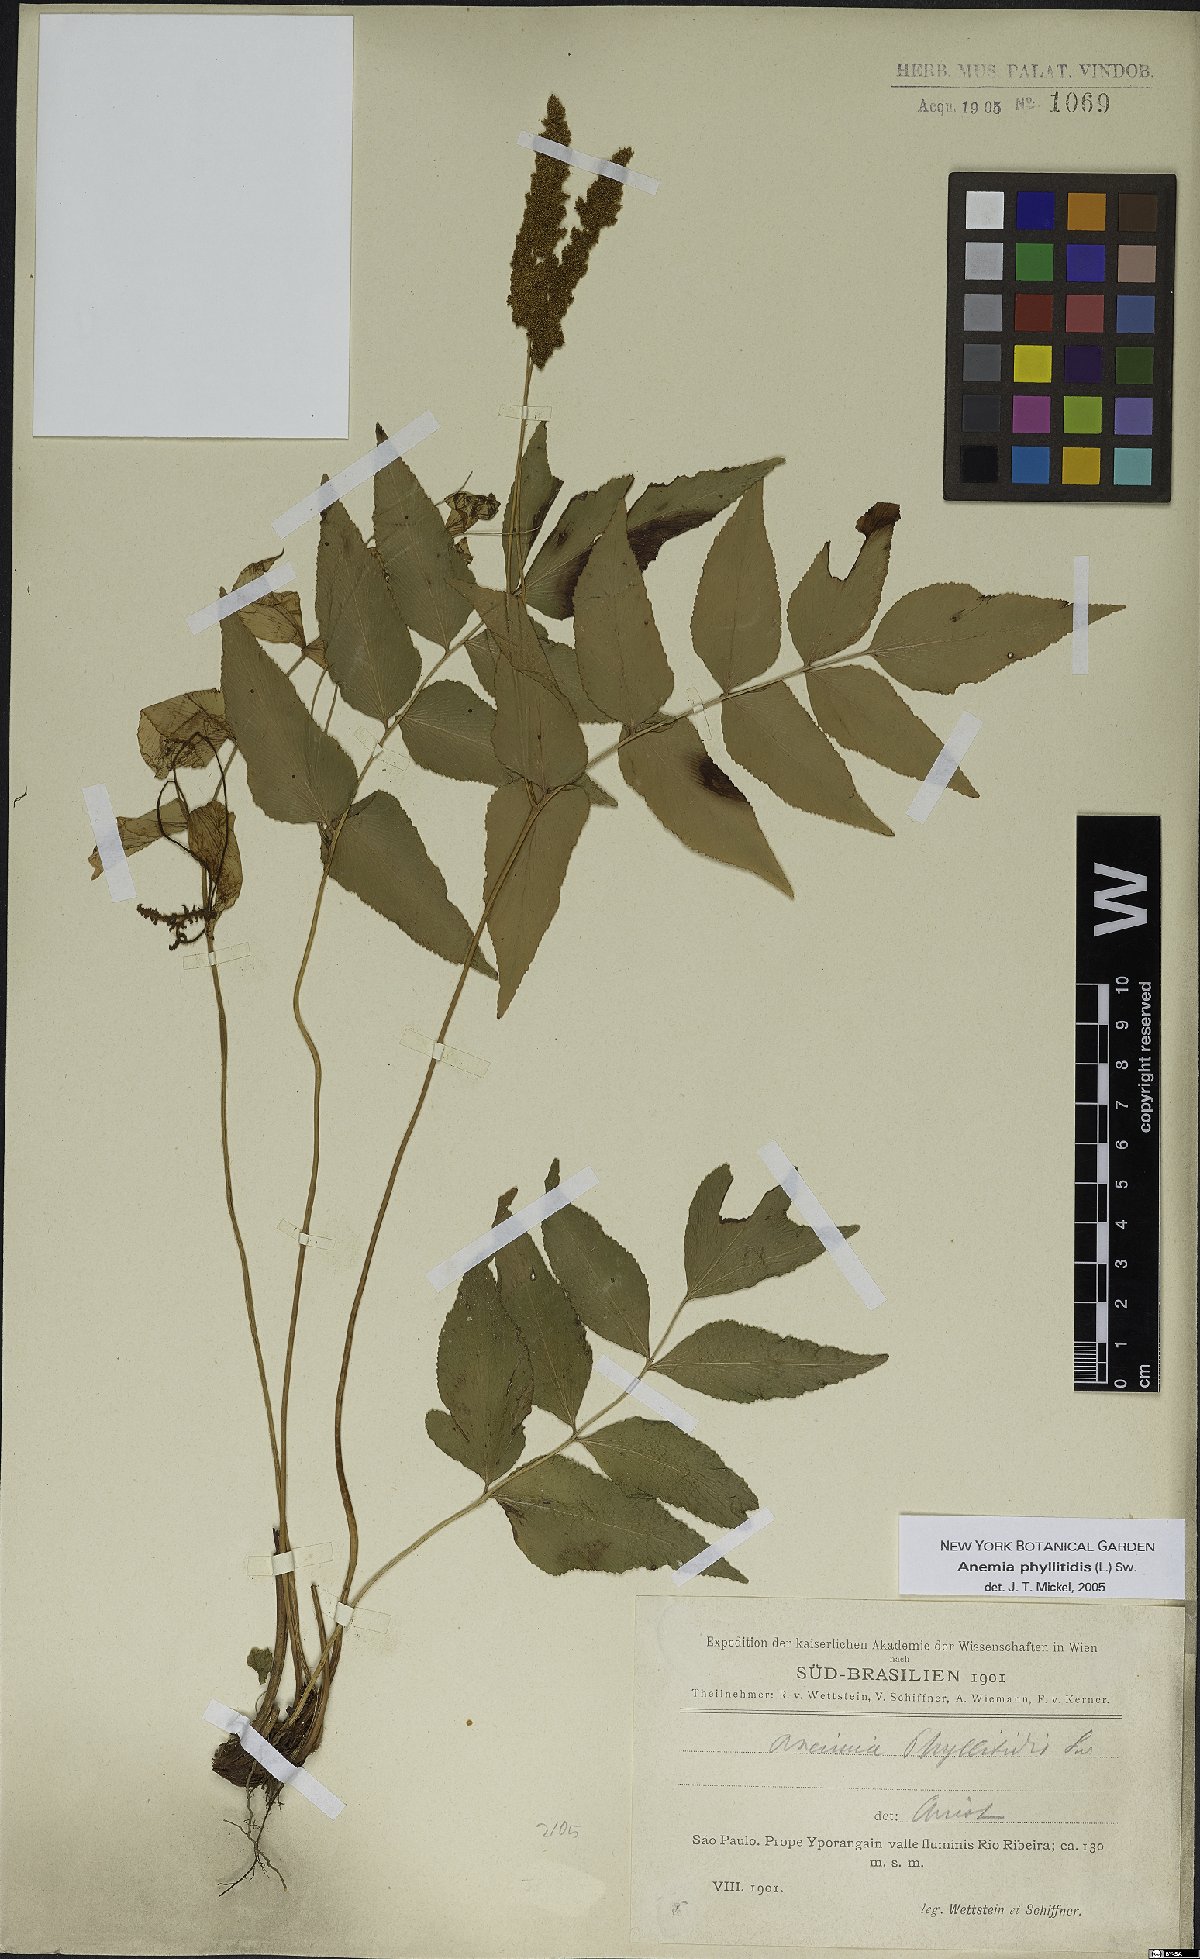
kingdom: Plantae
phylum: Tracheophyta
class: Polypodiopsida
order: Schizaeales
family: Anemiaceae
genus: Anemia
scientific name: Anemia phyllitidis
